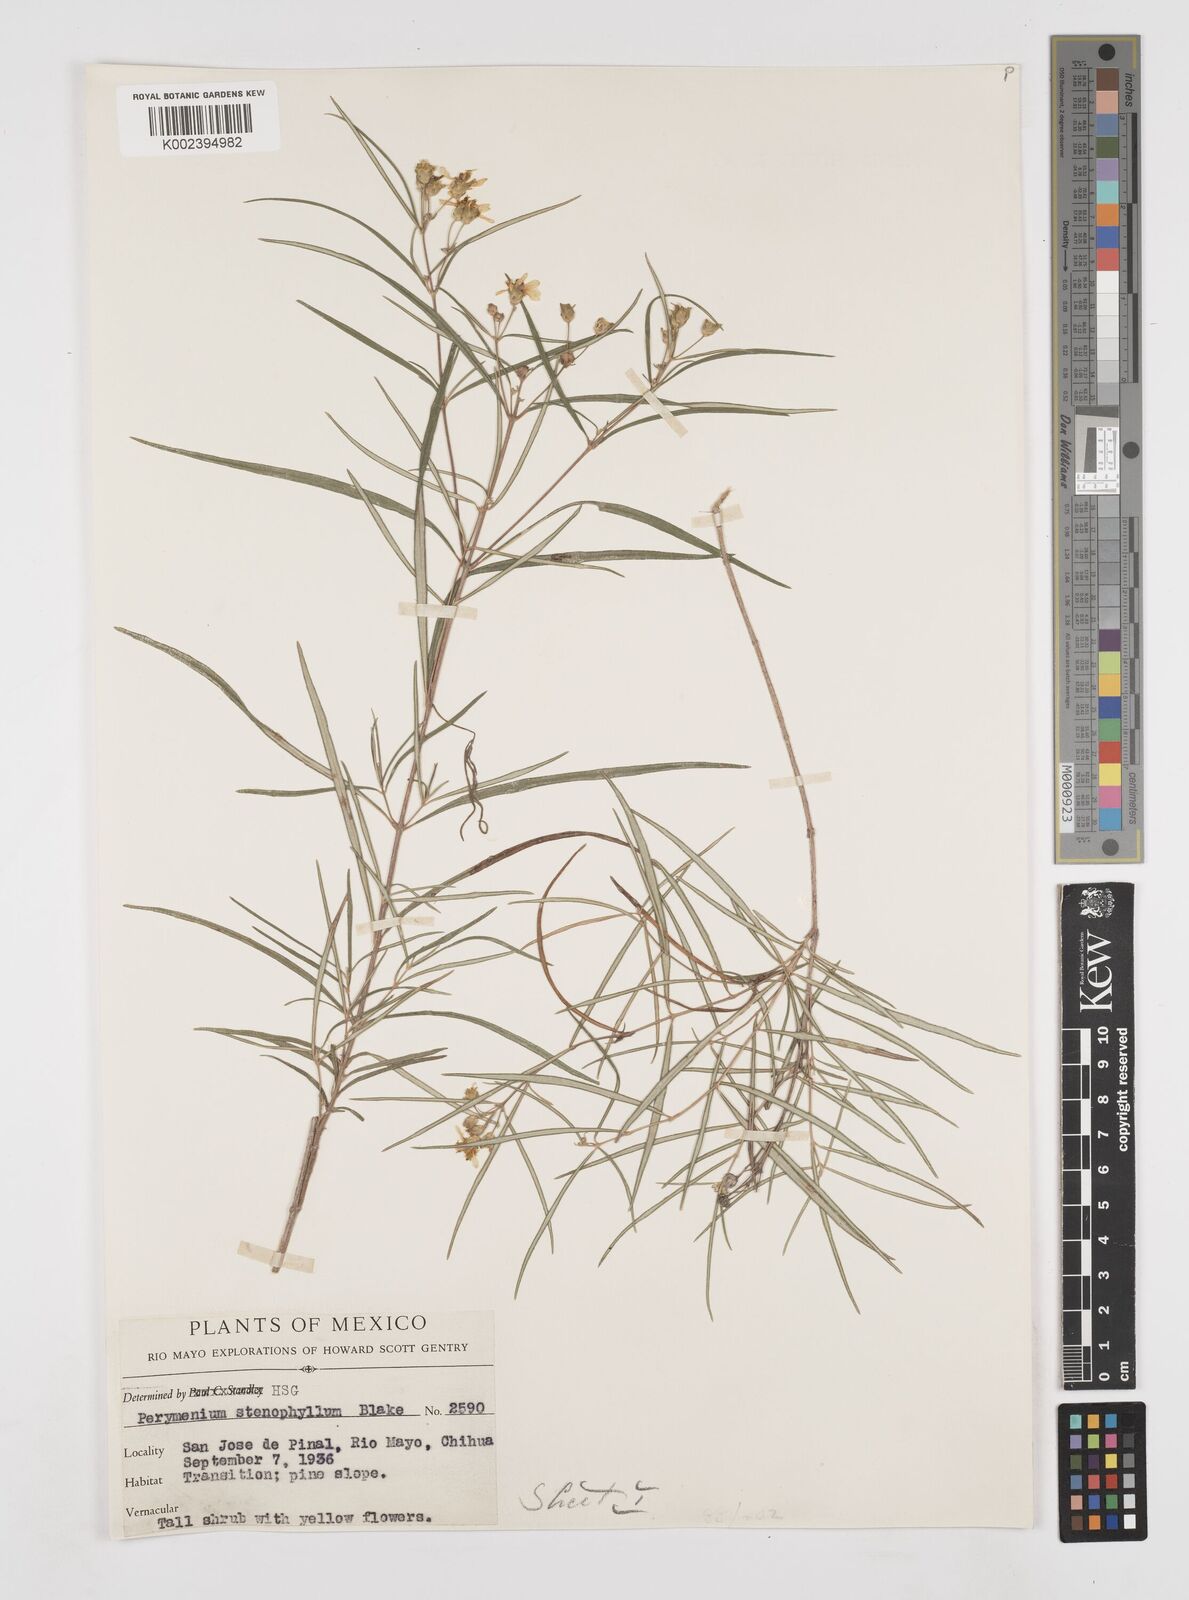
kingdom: Plantae
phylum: Tracheophyta
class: Magnoliopsida
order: Asterales
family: Asteraceae
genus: Perymenium
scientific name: Perymenium stenophyllum
